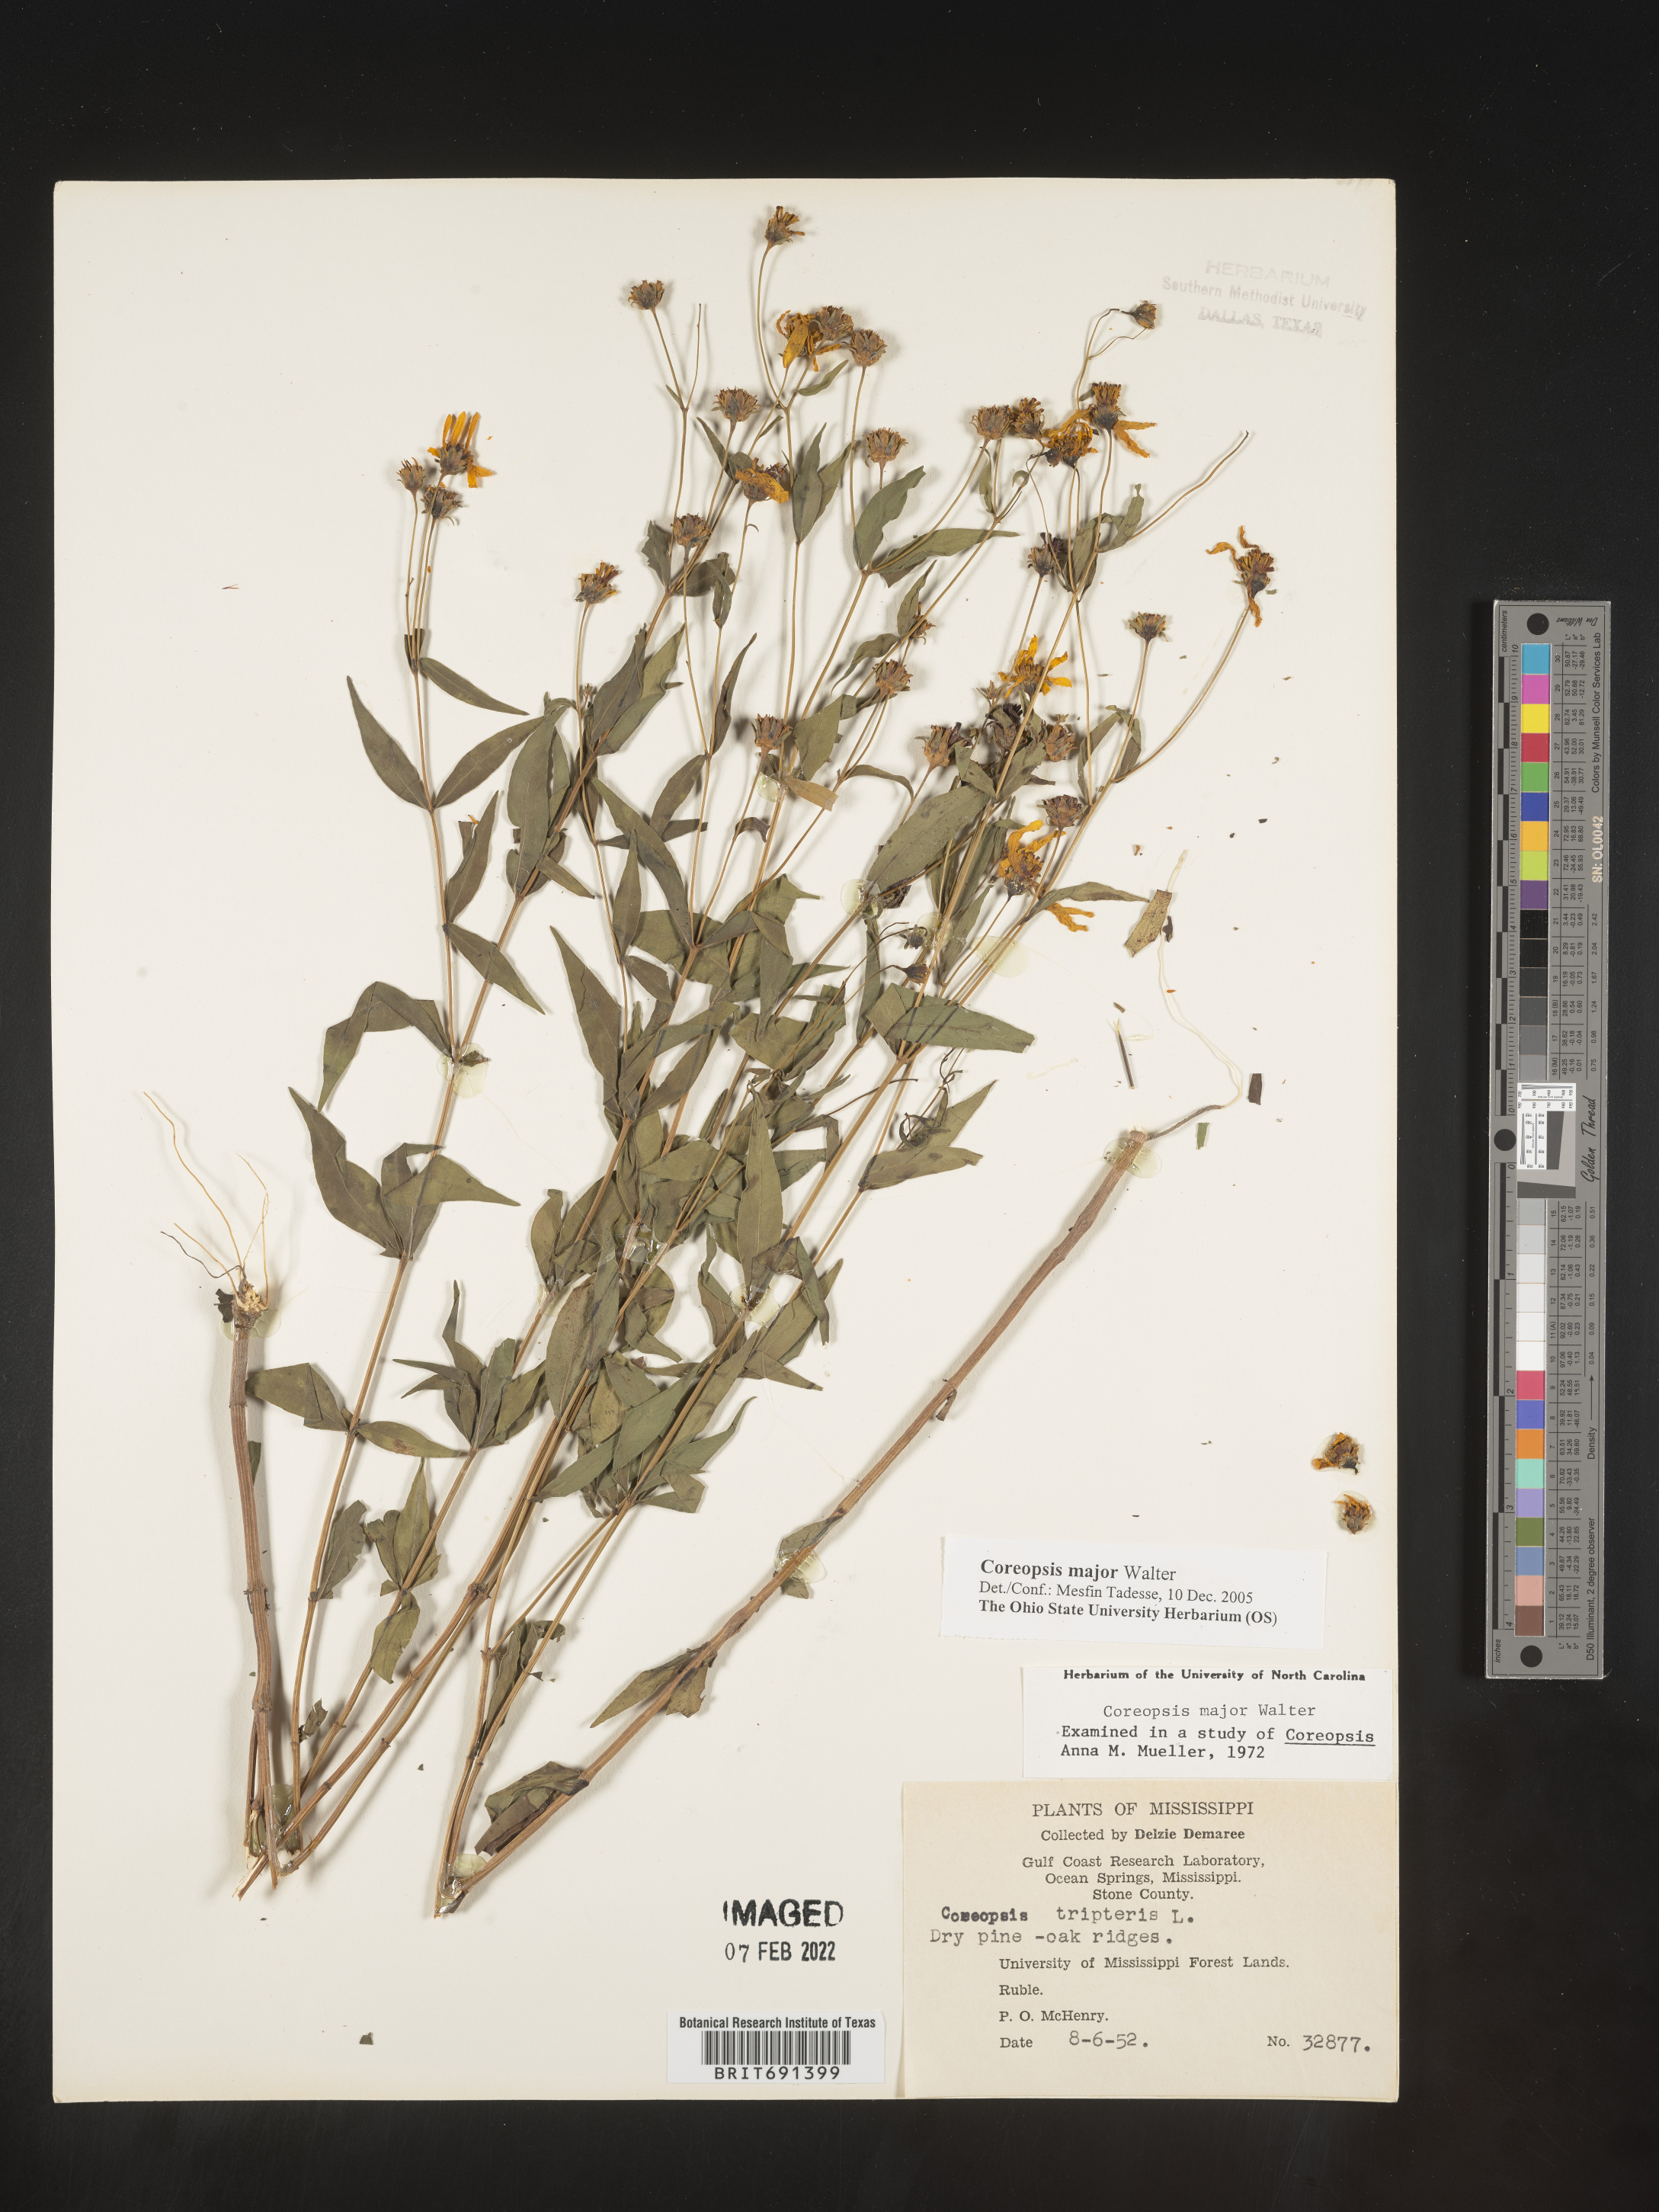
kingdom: Plantae
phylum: Tracheophyta
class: Magnoliopsida
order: Asterales
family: Asteraceae
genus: Coreopsis
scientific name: Coreopsis major
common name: Forest tickseed
